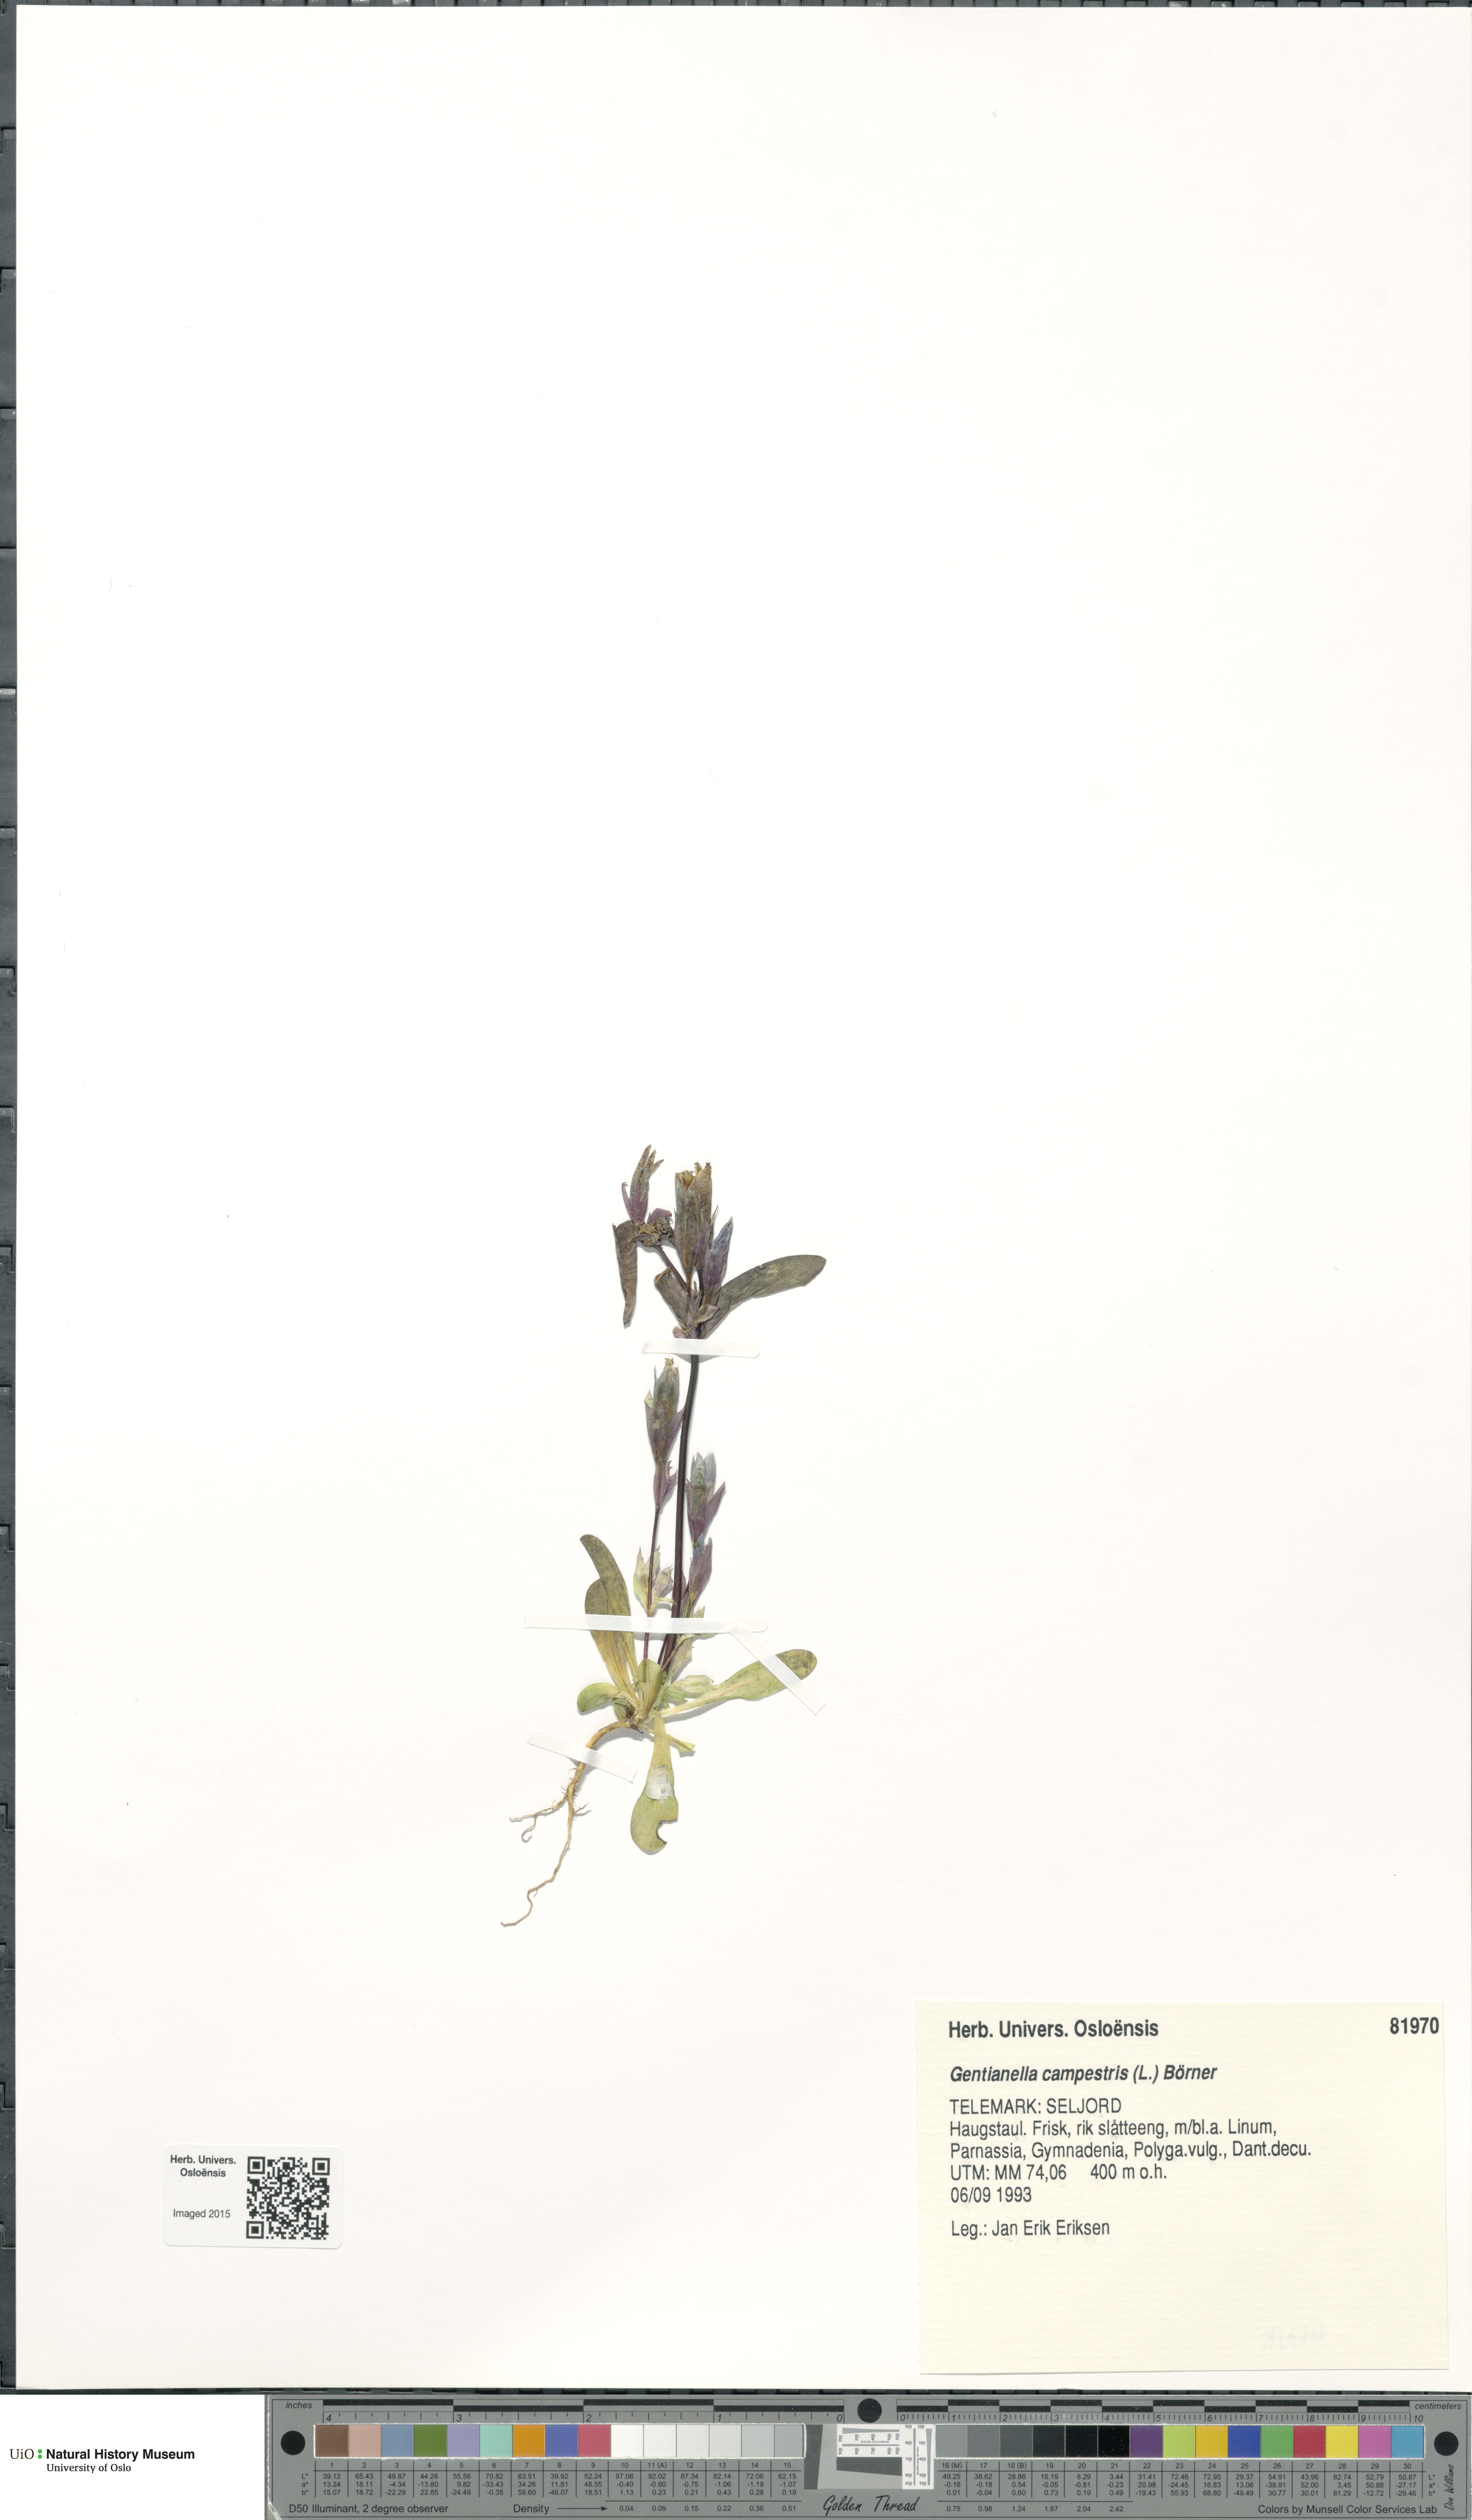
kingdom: Plantae
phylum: Tracheophyta
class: Magnoliopsida
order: Gentianales
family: Gentianaceae
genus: Gentianella
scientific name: Gentianella campestris
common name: Field gentian
